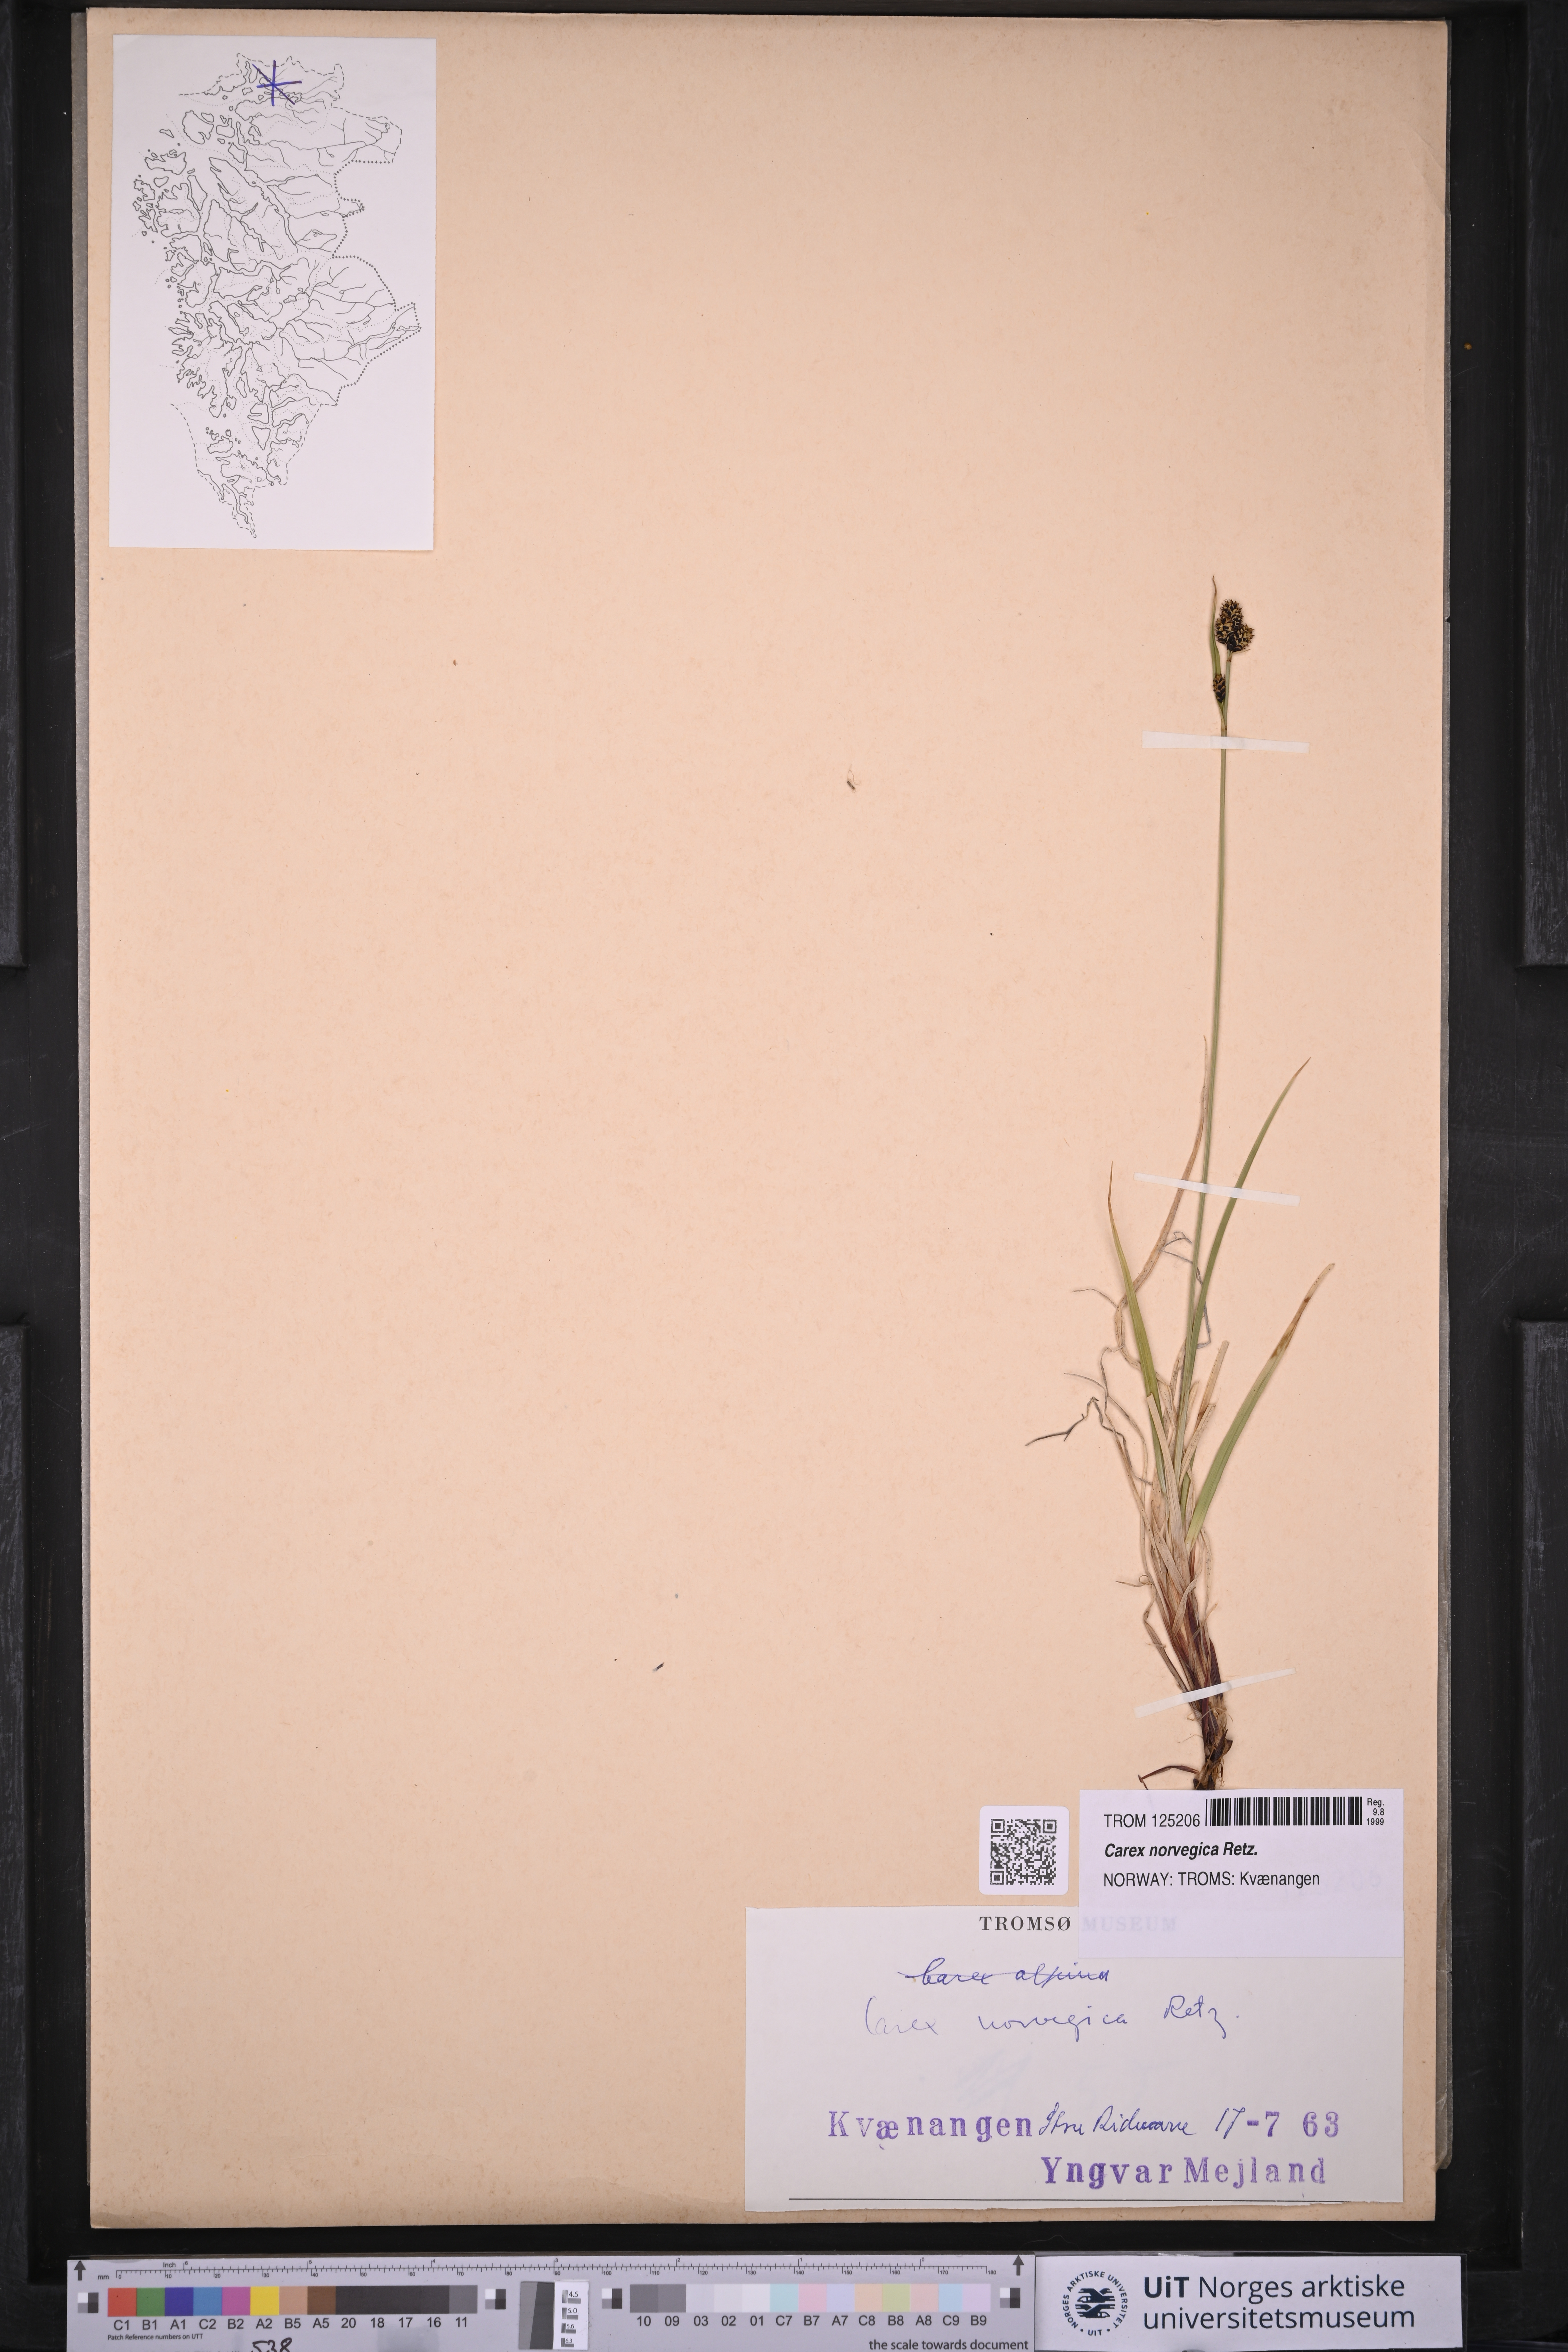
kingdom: Plantae
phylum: Tracheophyta
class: Liliopsida
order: Poales
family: Cyperaceae
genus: Carex
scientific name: Carex norvegica
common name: Close-headed alpine-sedge
